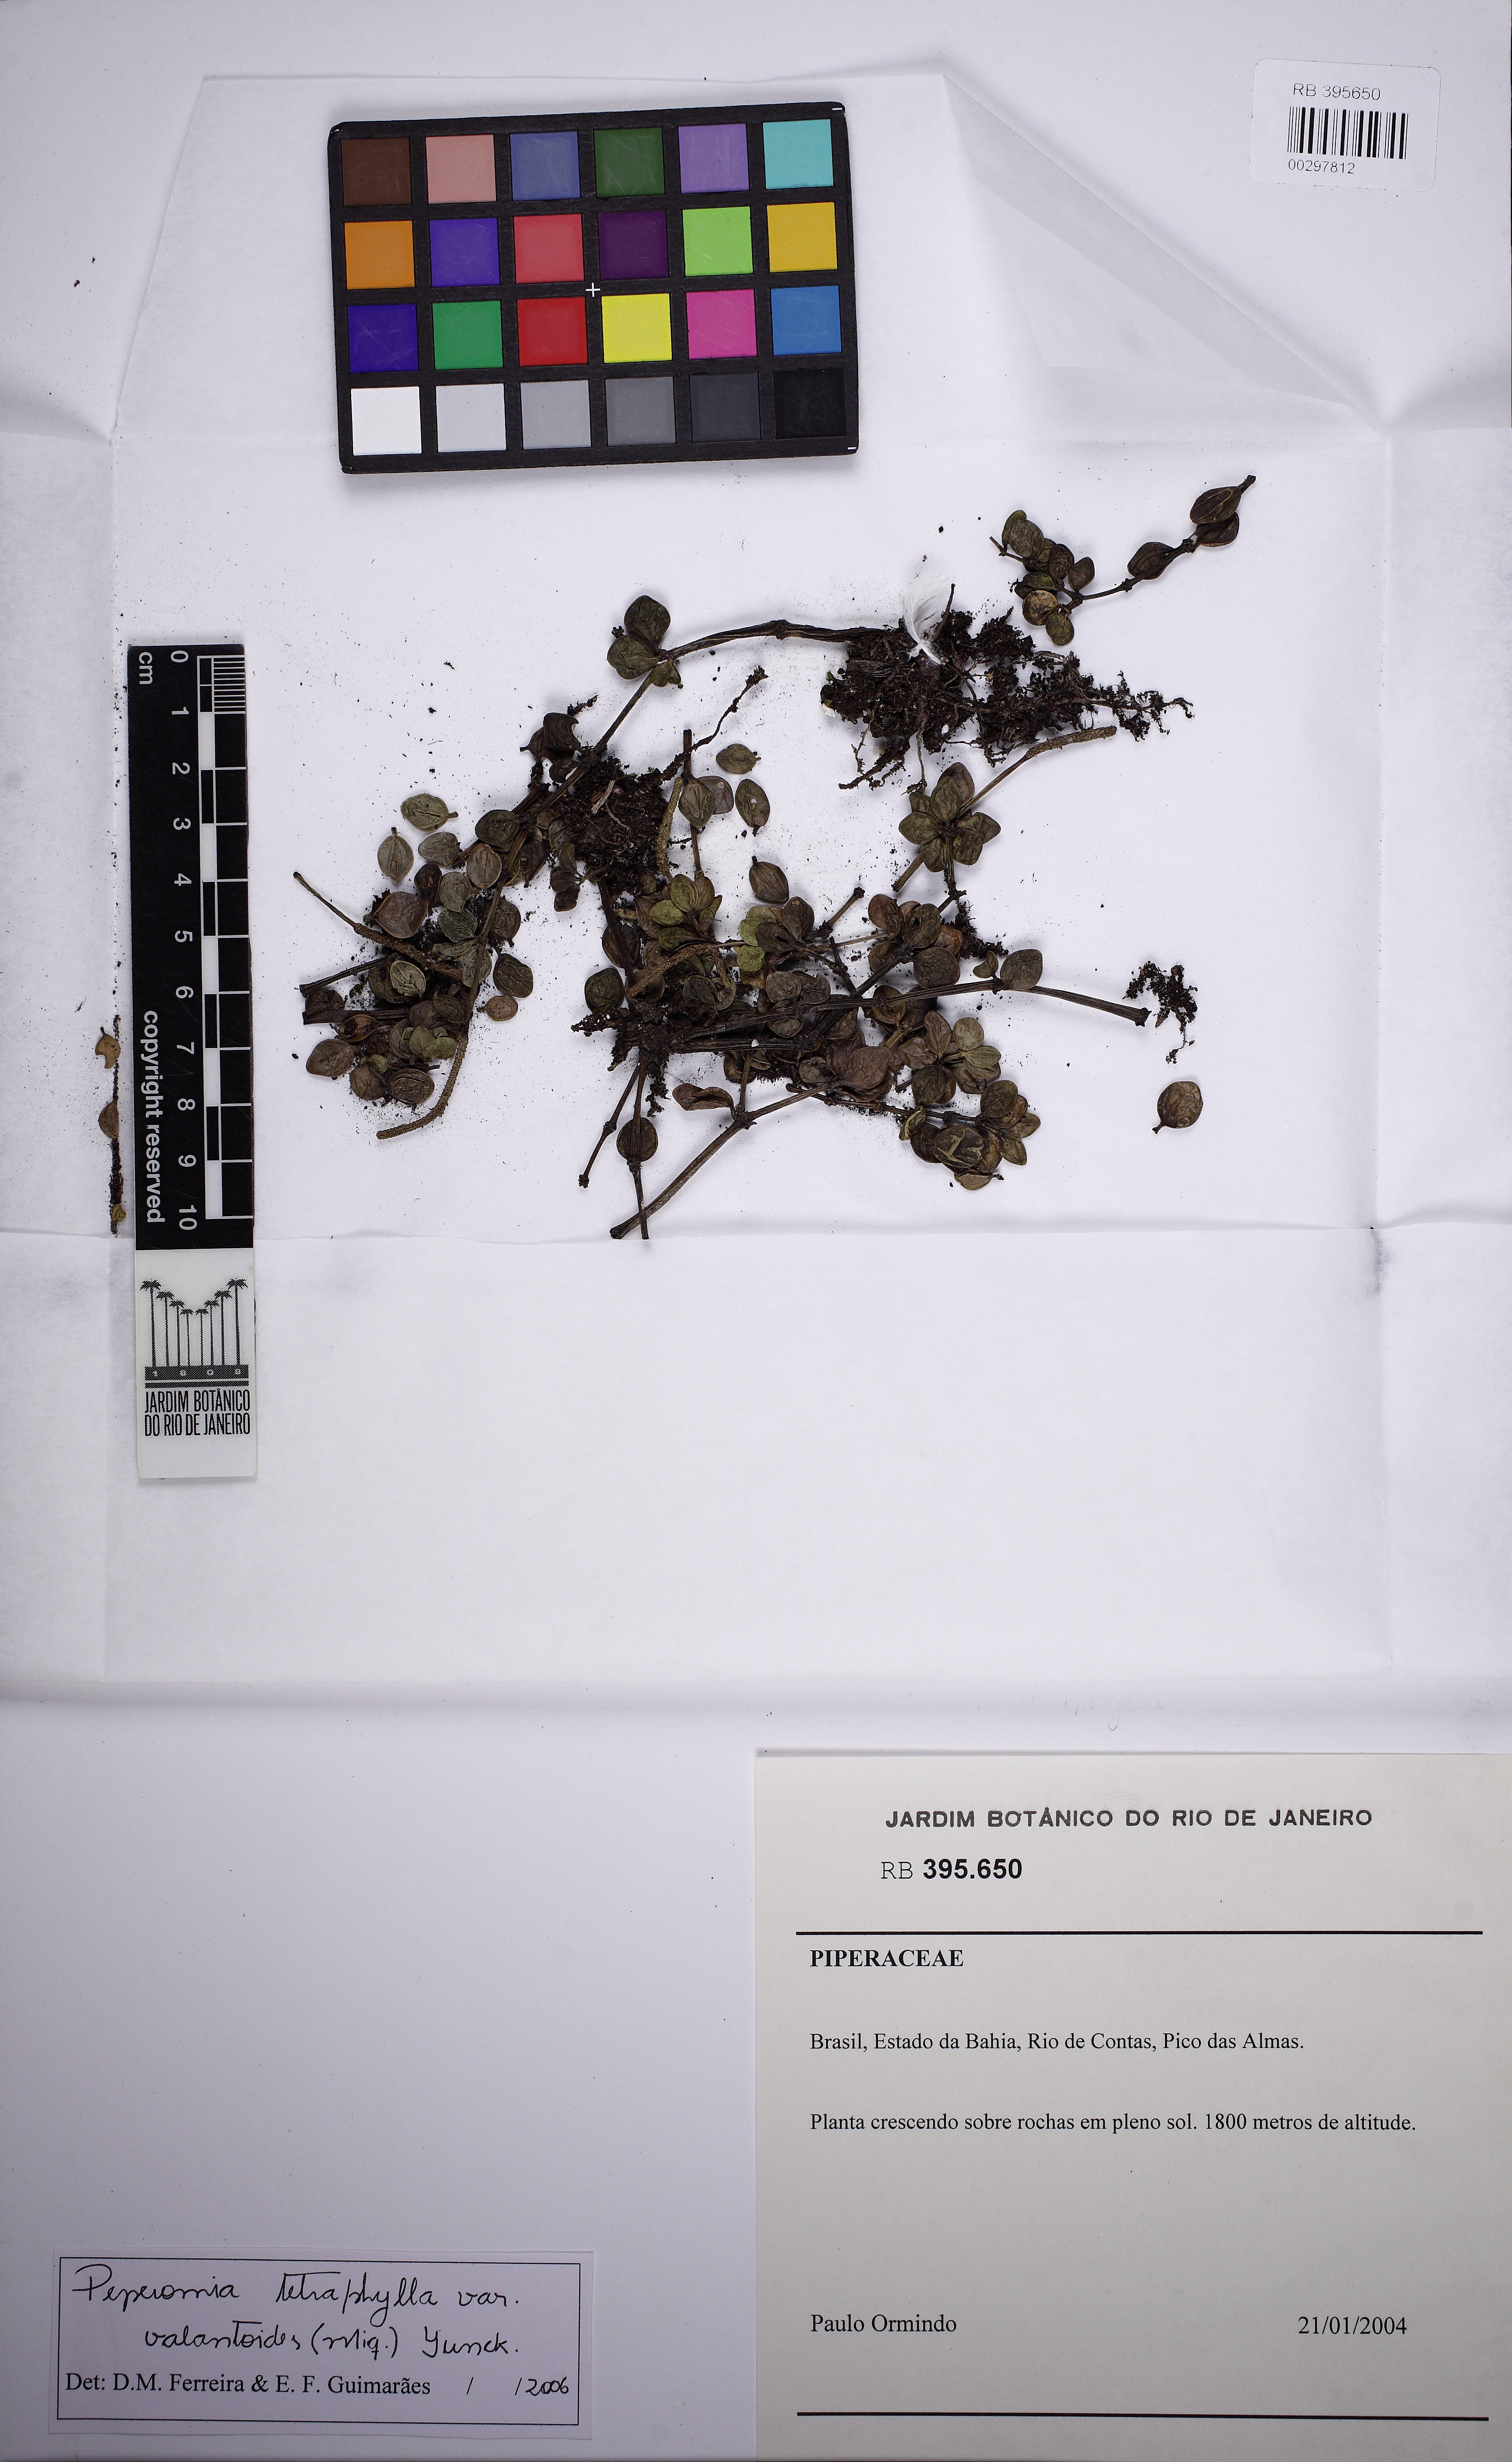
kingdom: Plantae
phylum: Tracheophyta
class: Magnoliopsida
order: Piperales
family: Piperaceae
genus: Peperomia
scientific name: Peperomia tetraphylla
